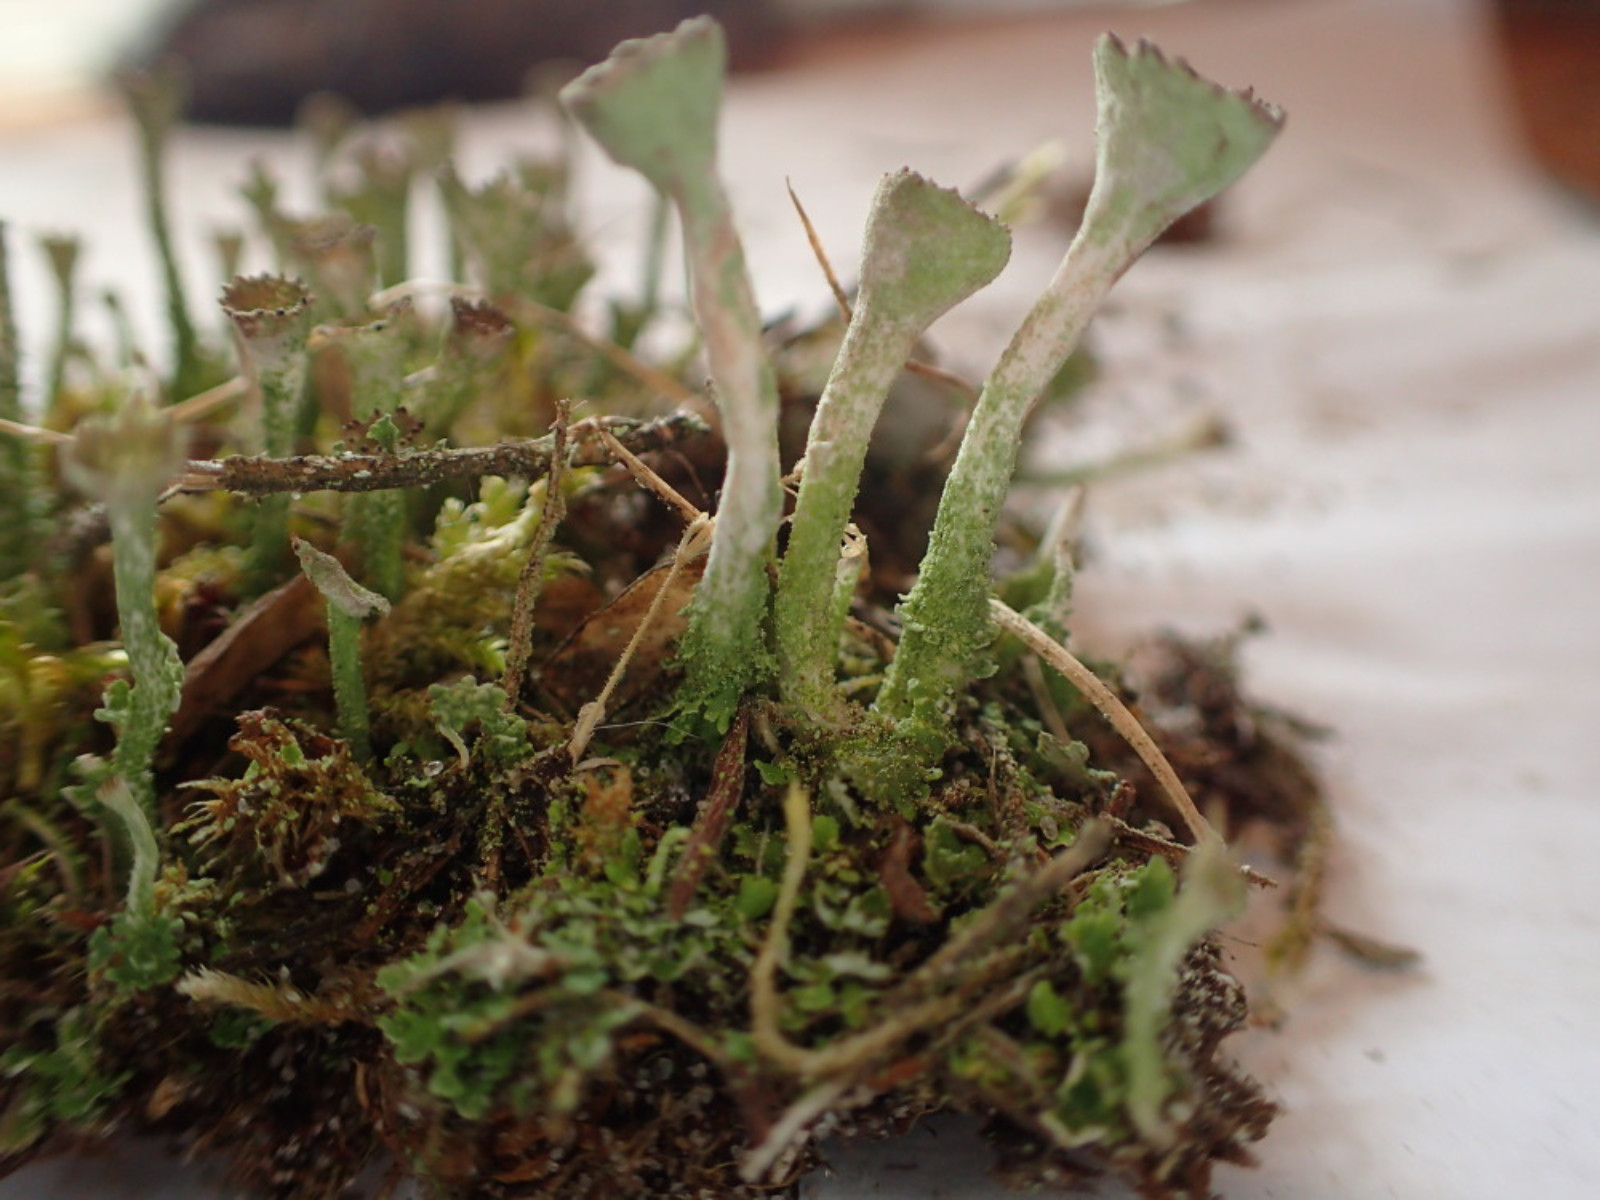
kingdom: Fungi
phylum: Ascomycota
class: Lecanoromycetes
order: Lecanorales
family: Cladoniaceae
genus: Cladonia
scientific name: Cladonia fimbriata
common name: bleggrøn bægerlav
